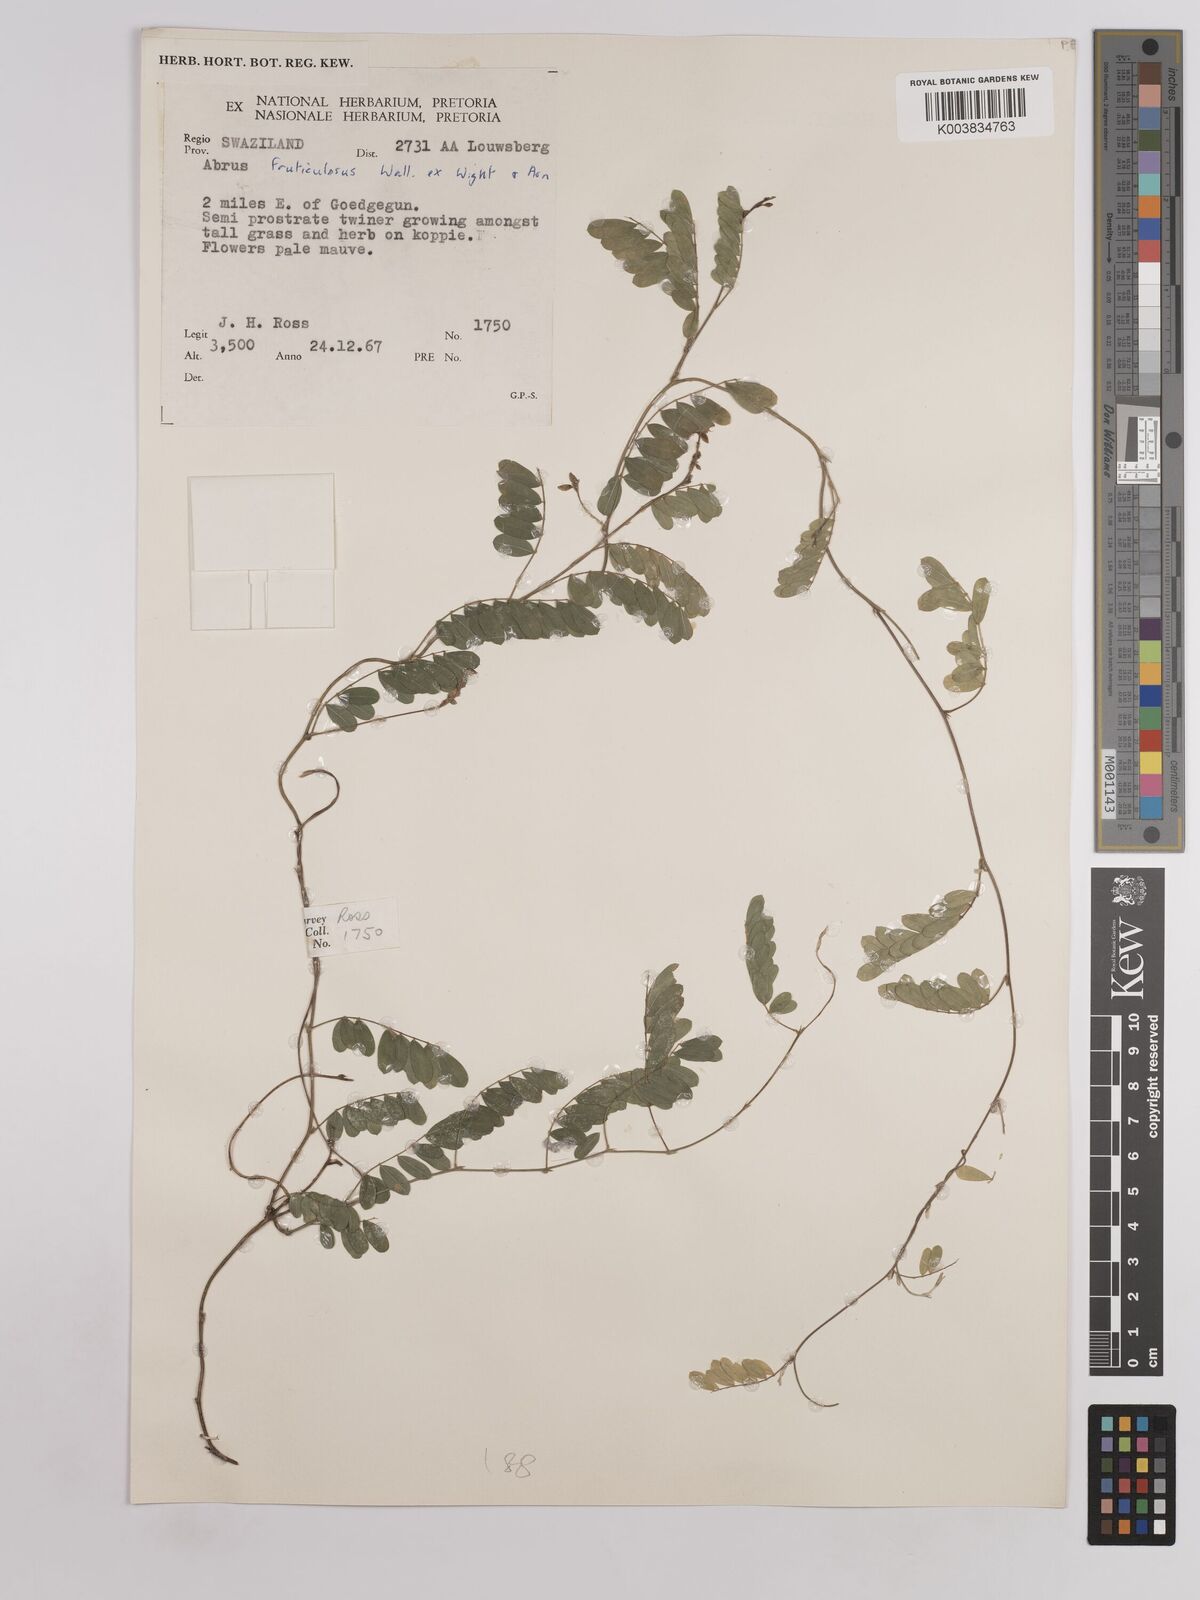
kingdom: Plantae
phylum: Tracheophyta
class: Magnoliopsida
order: Fabales
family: Fabaceae
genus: Abrus
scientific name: Abrus fruticulosus
